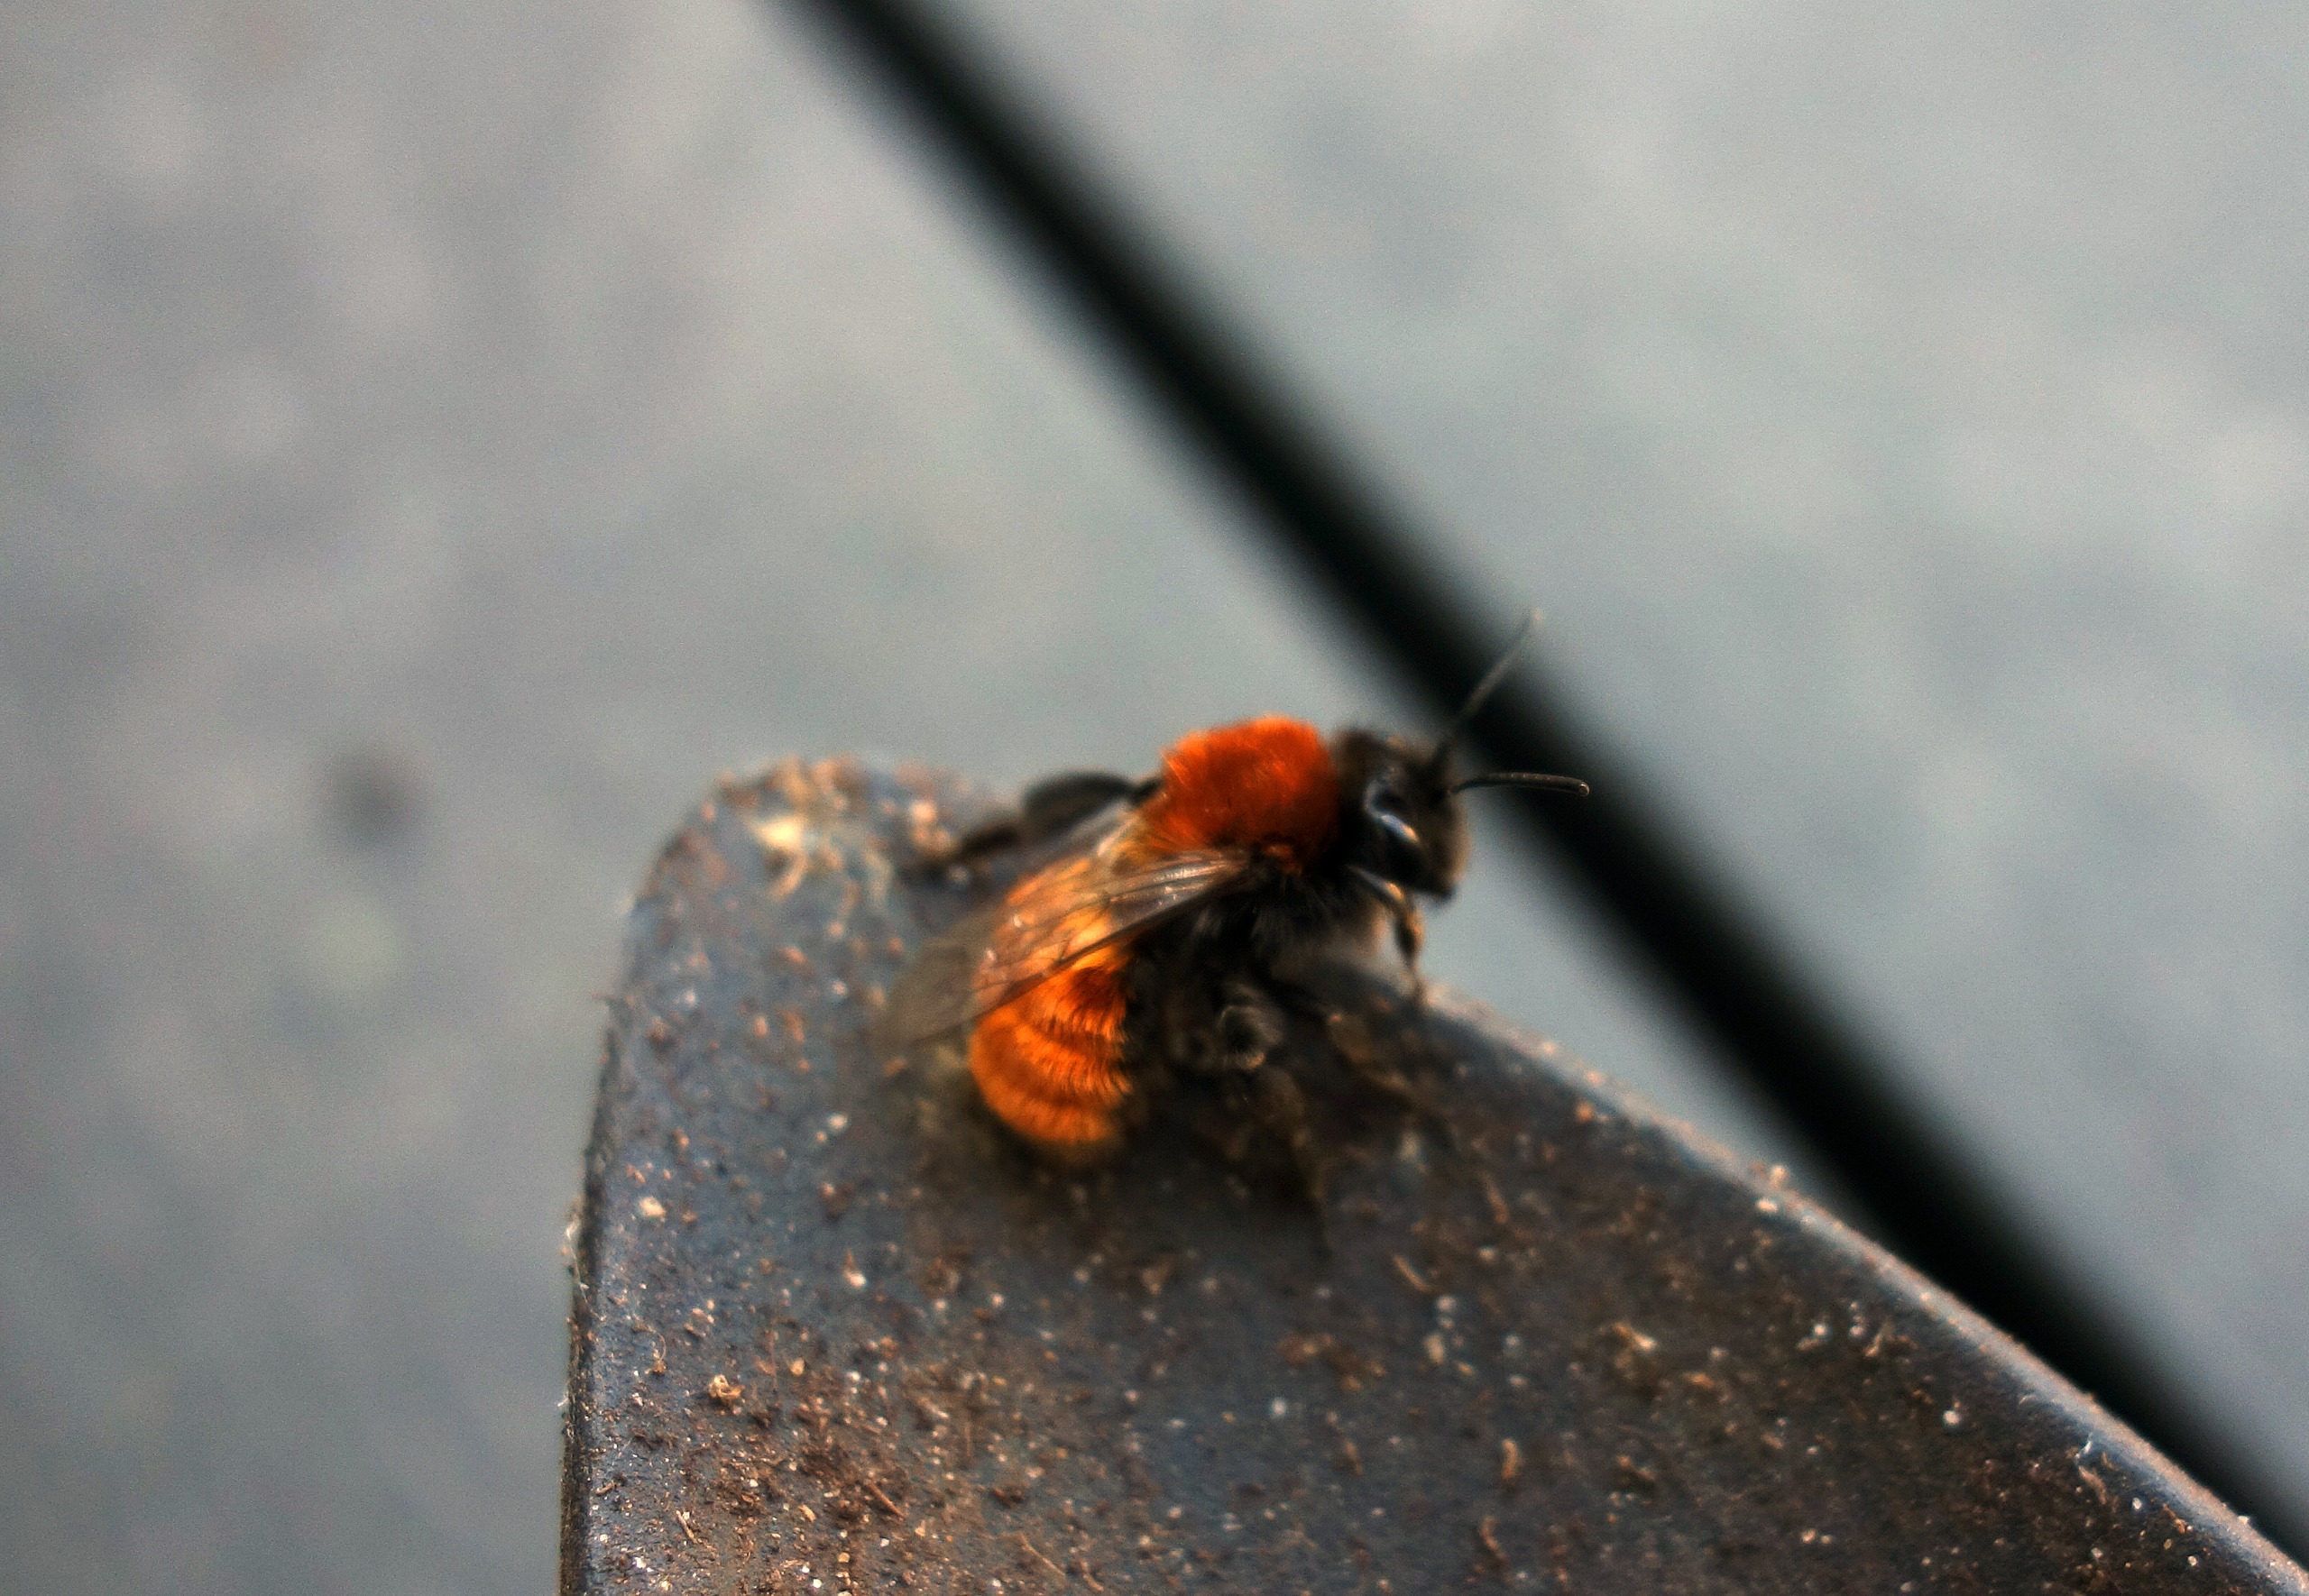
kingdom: Animalia
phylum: Arthropoda
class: Insecta
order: Hymenoptera
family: Andrenidae
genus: Andrena
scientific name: Andrena fulva
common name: Rødpelset jordbi
